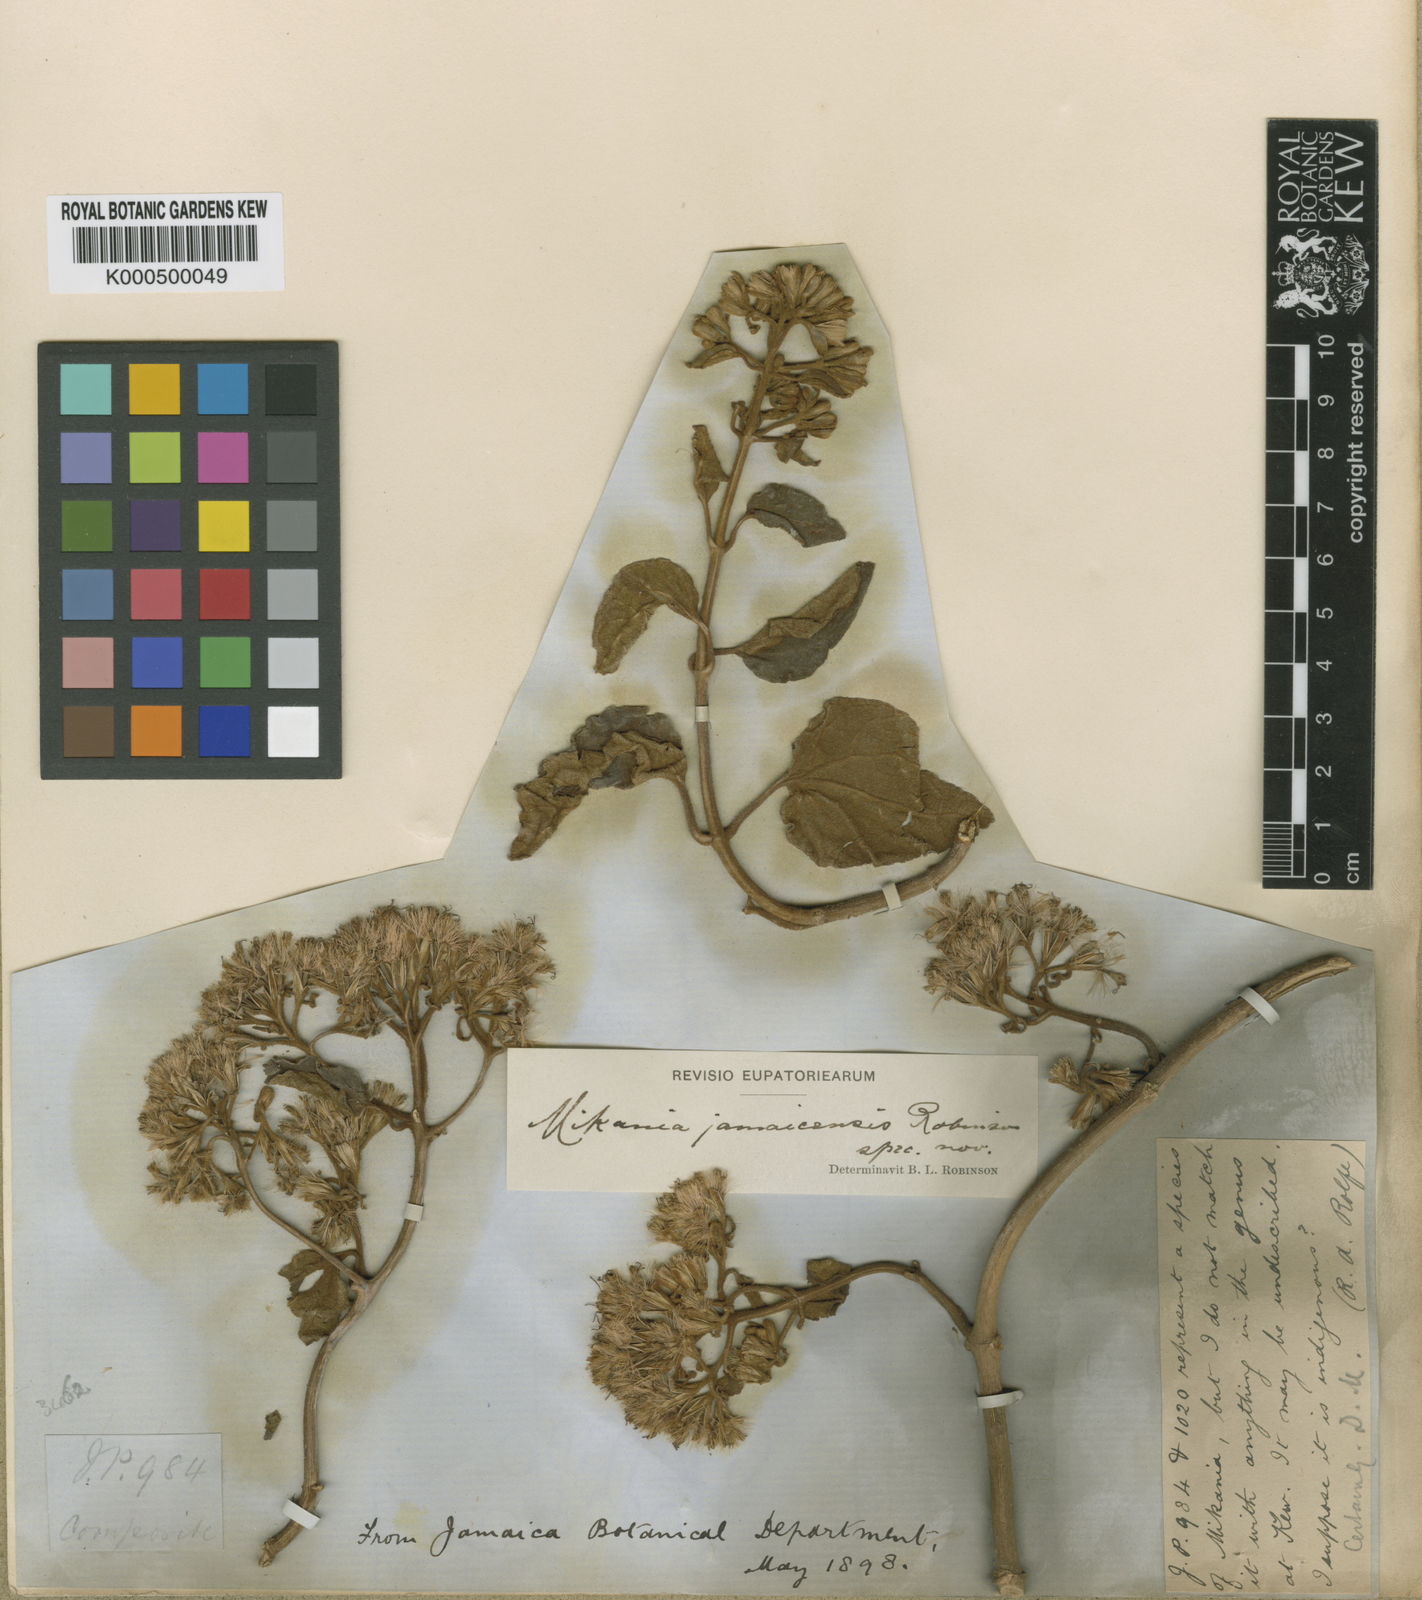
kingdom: Plantae
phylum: Tracheophyta
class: Magnoliopsida
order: Asterales
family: Asteraceae
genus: Mikania
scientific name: Mikania jamaicensis
